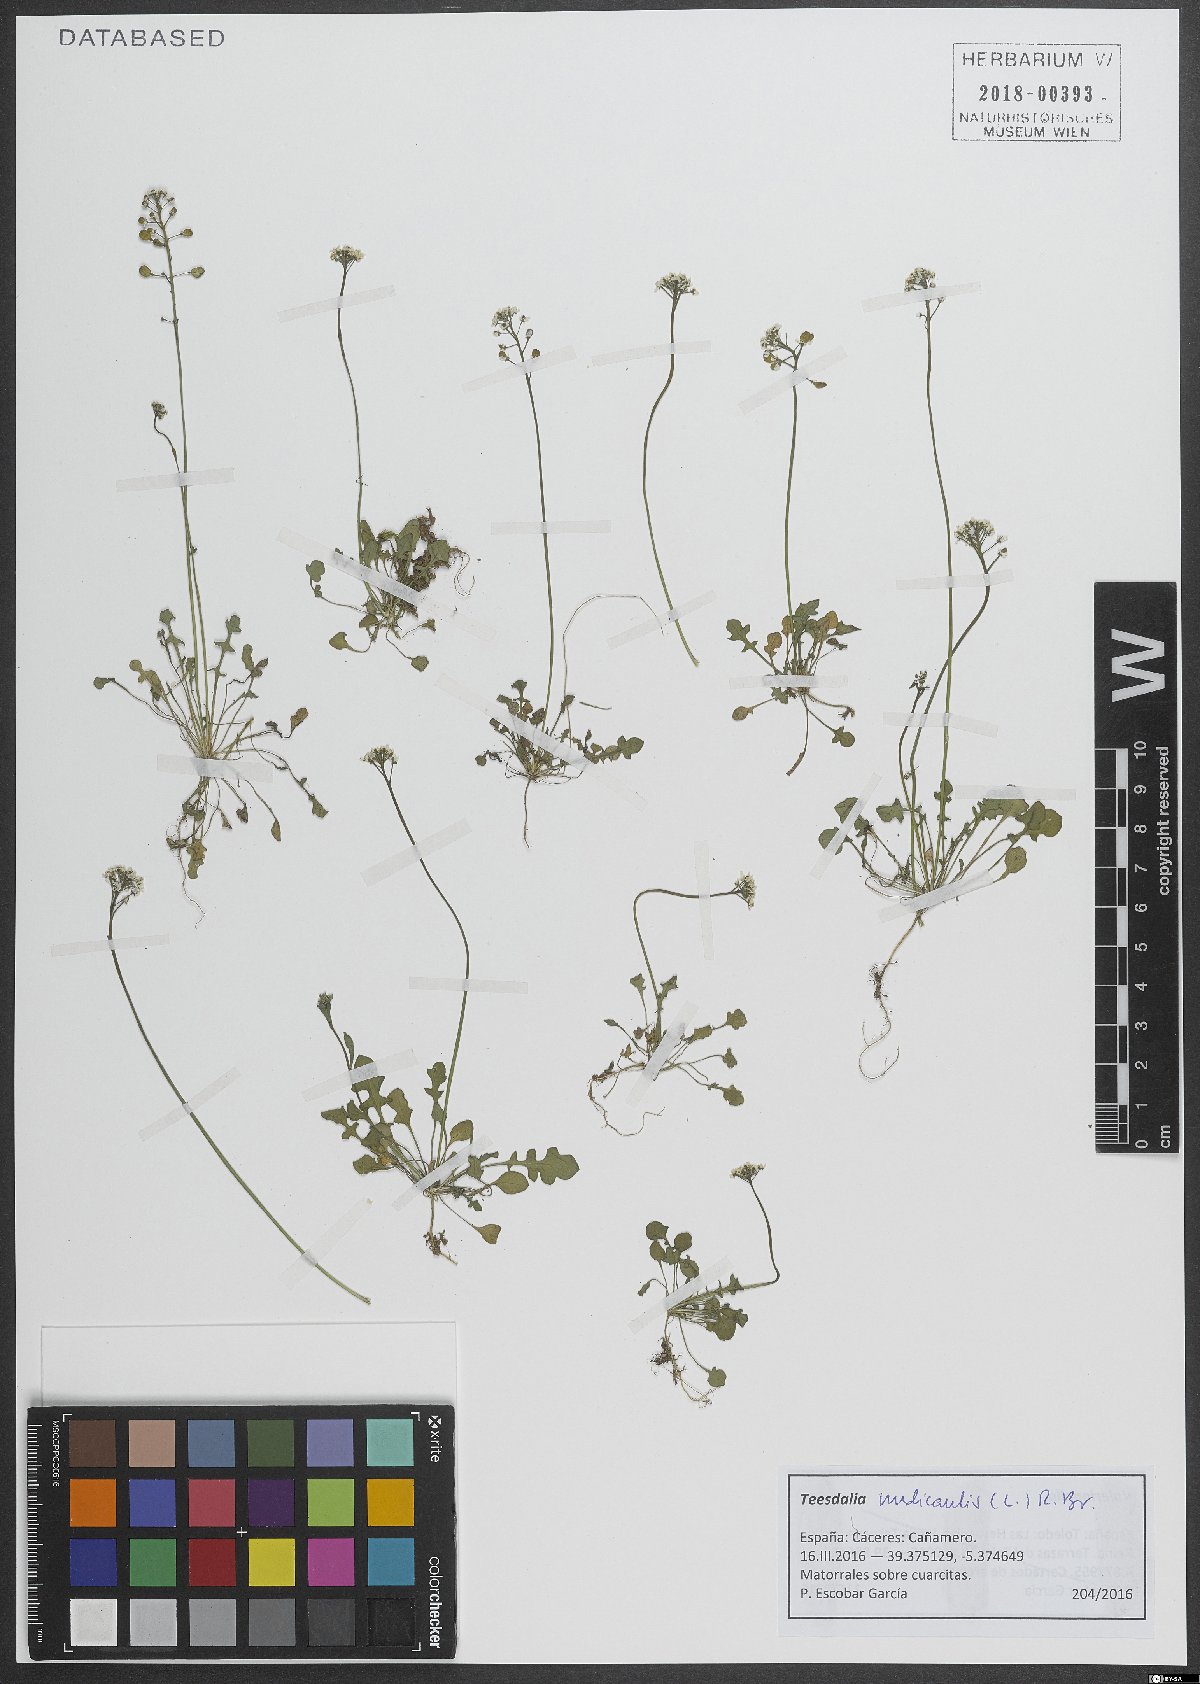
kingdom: Plantae
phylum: Tracheophyta
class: Magnoliopsida
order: Brassicales
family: Brassicaceae
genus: Teesdalia
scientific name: Teesdalia nudicaulis
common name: Shepherd's cress
